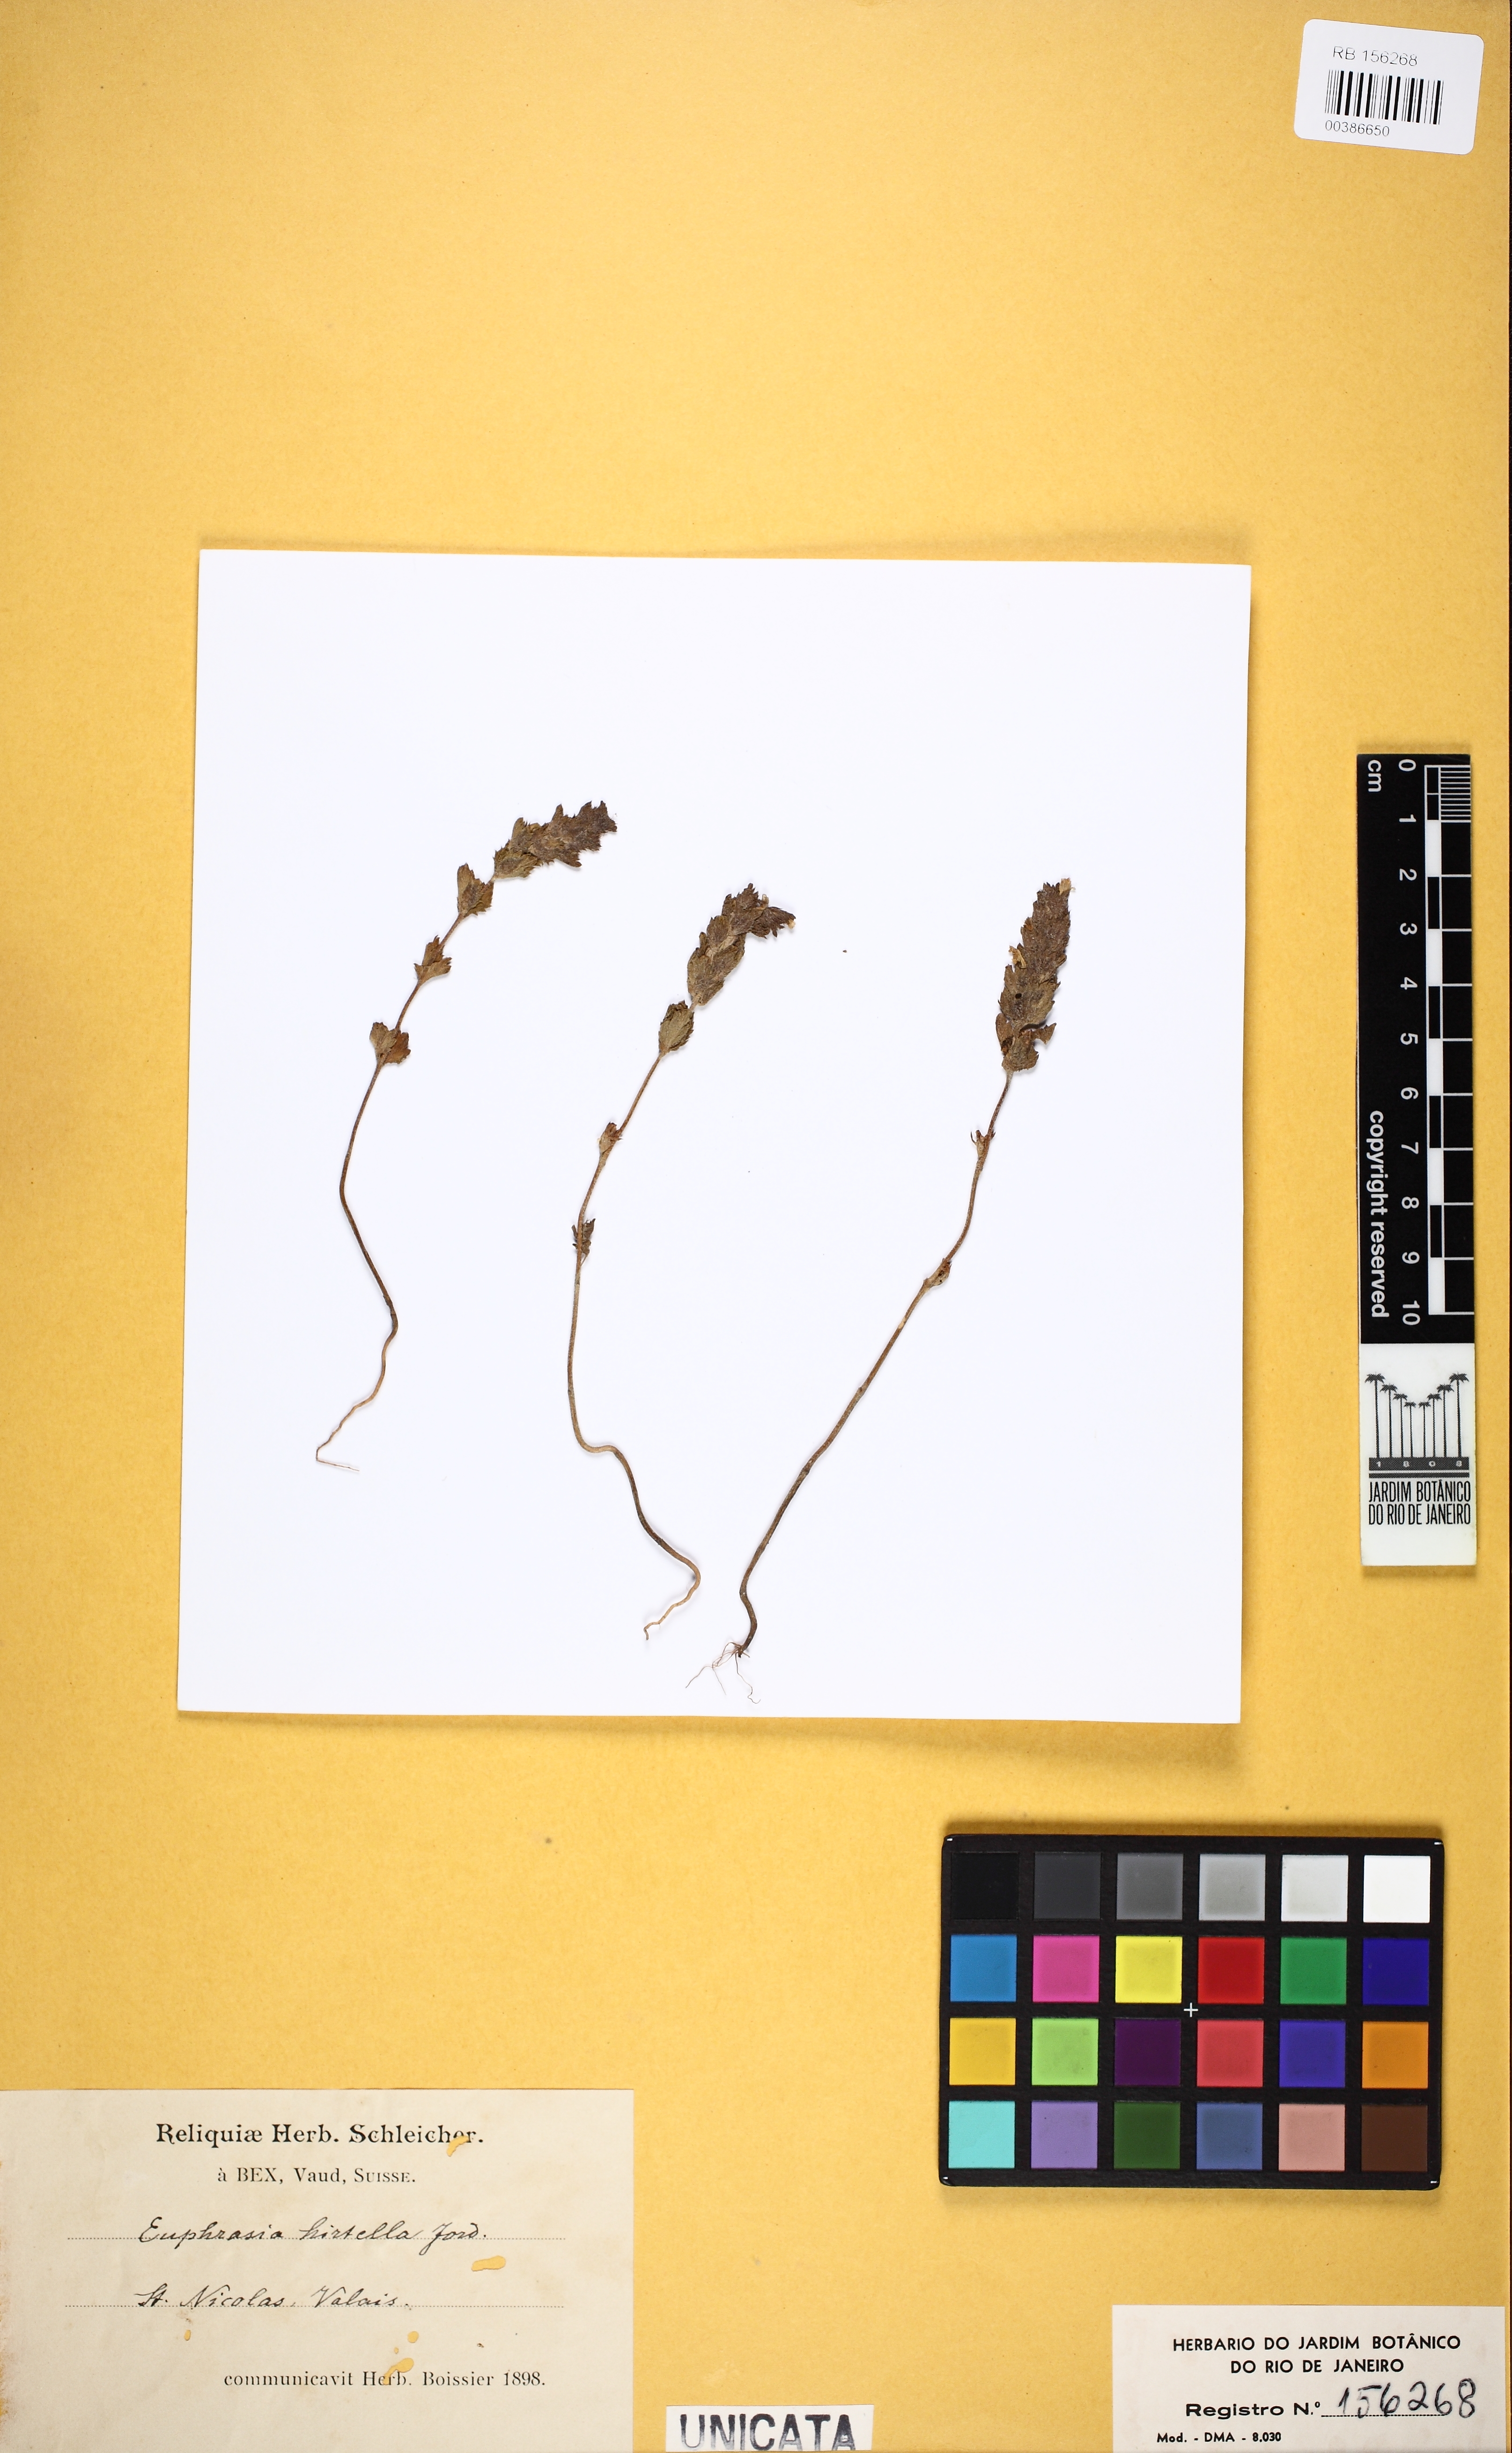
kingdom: Plantae
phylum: Tracheophyta
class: Magnoliopsida
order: Lamiales
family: Orobanchaceae
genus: Euphrasia
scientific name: Euphrasia hirtella
